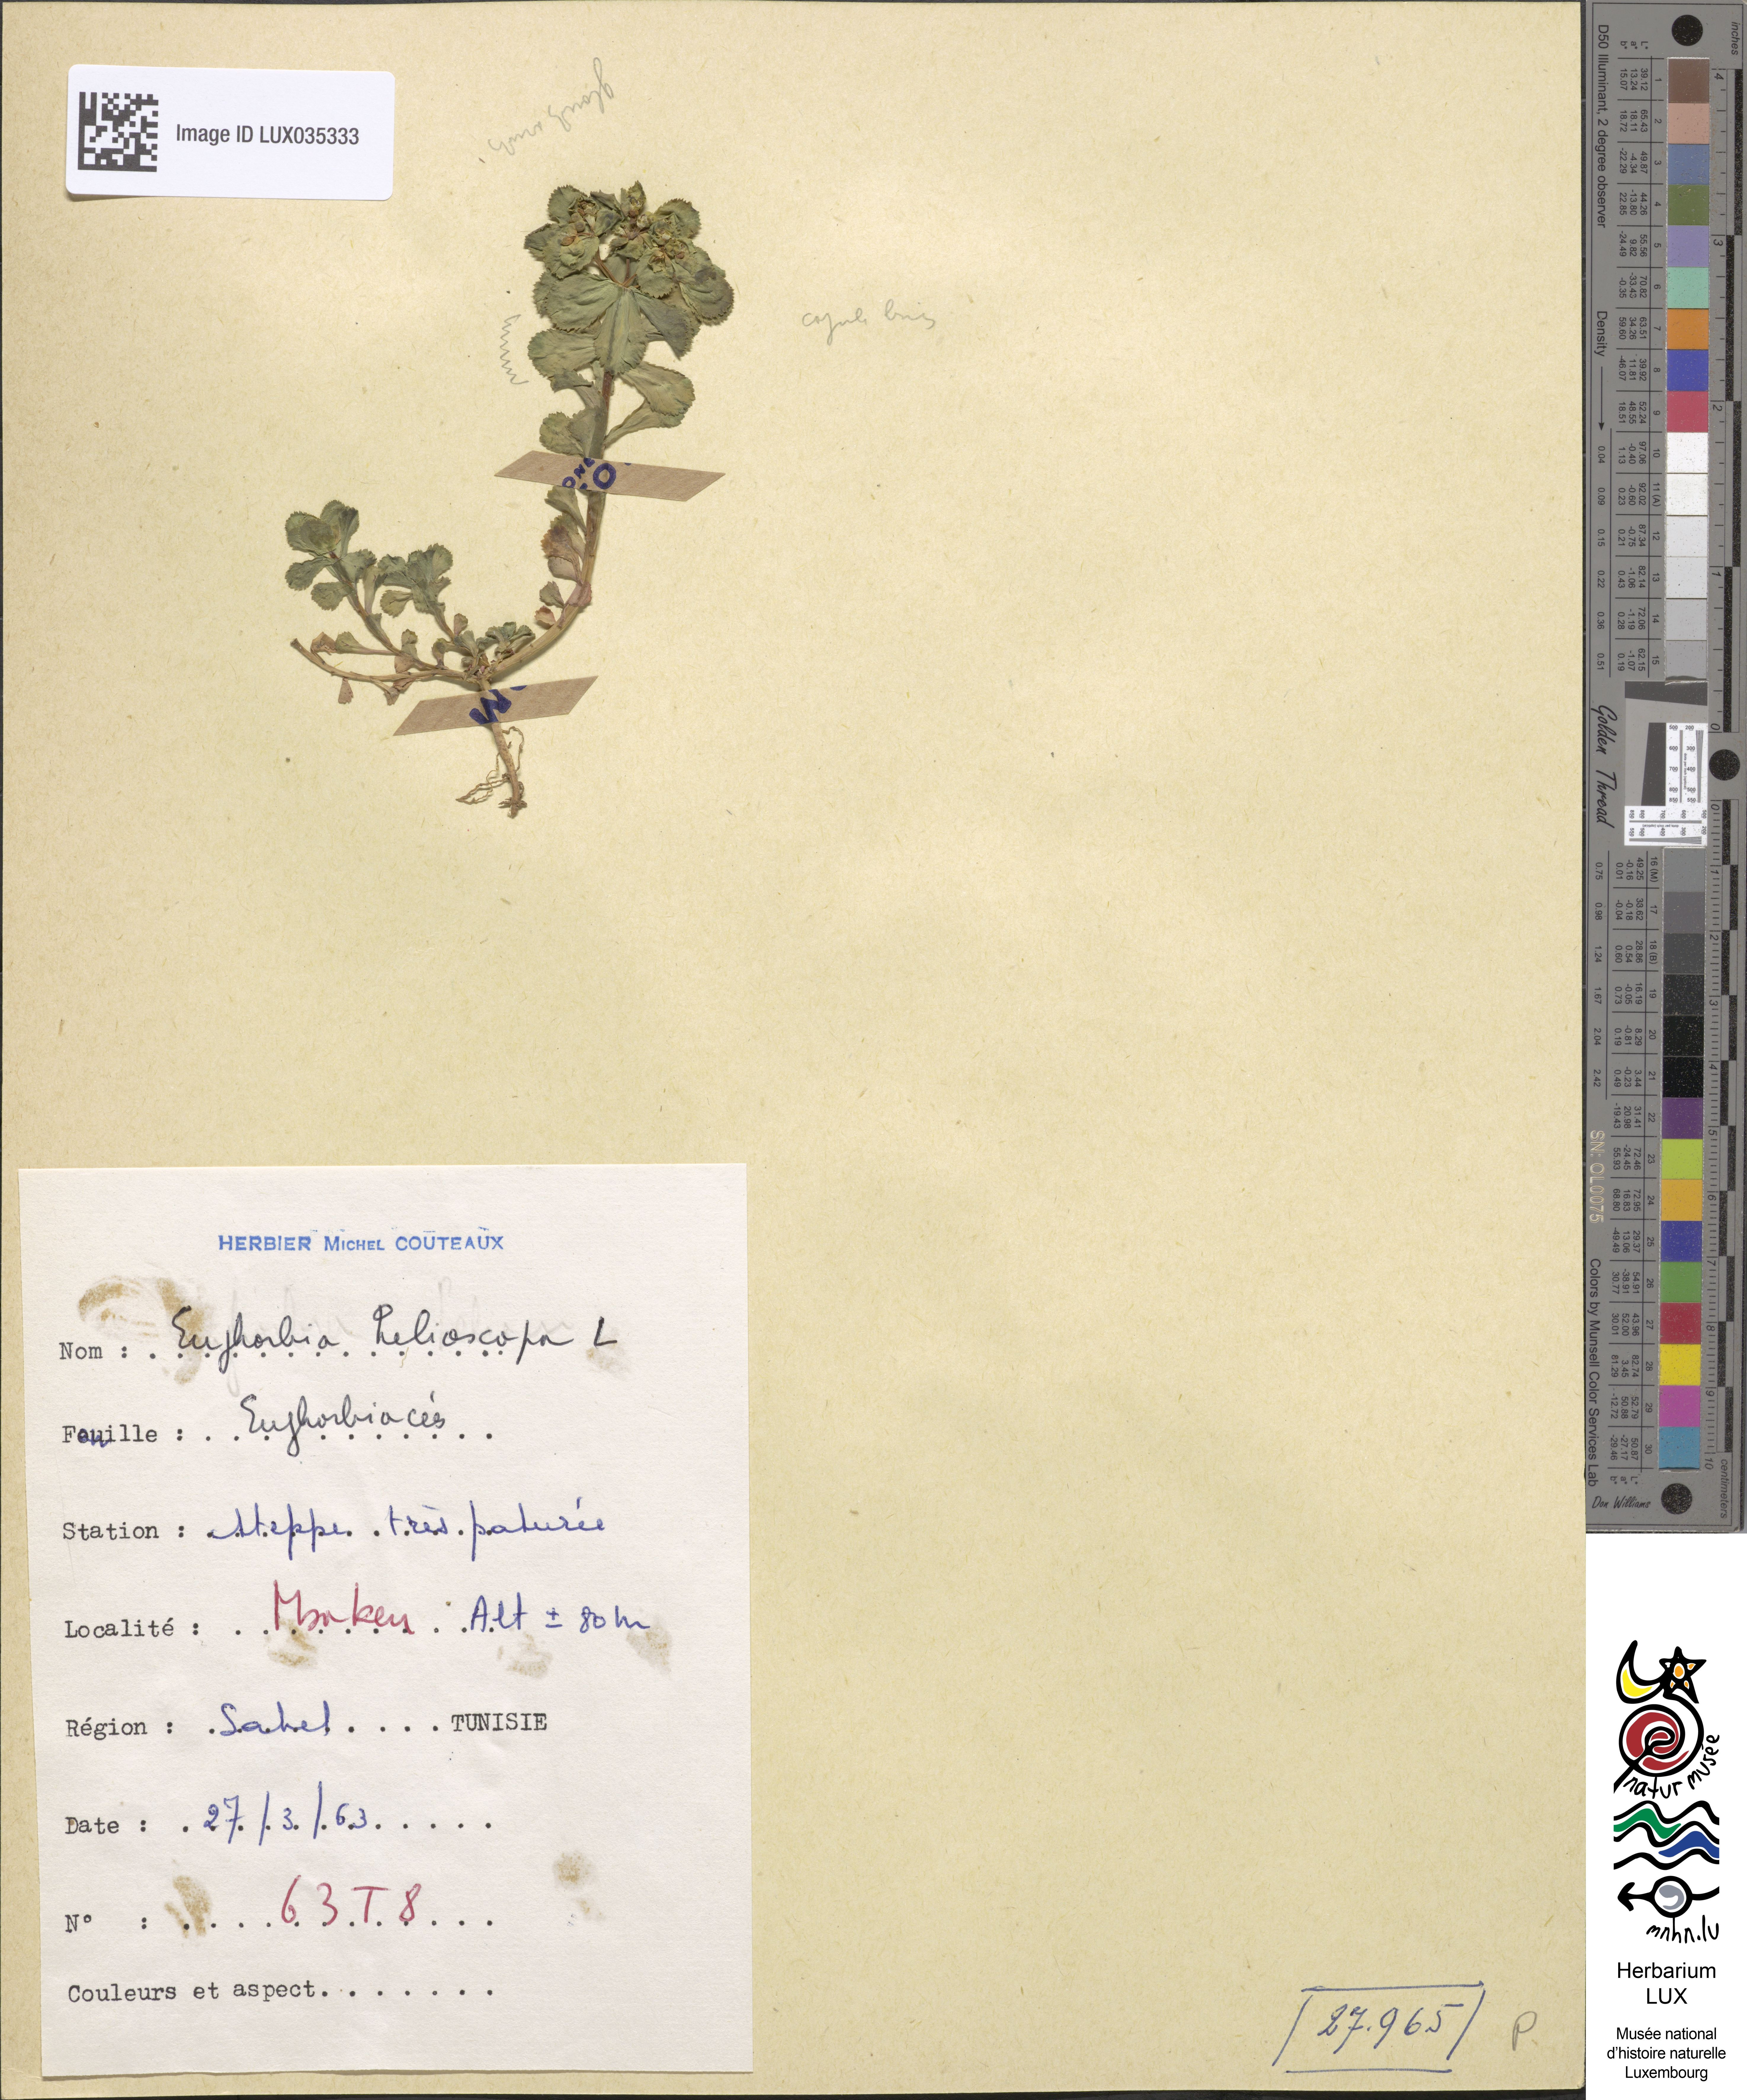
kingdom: Plantae
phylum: Tracheophyta
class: Magnoliopsida
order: Malpighiales
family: Euphorbiaceae
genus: Euphorbia
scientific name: Euphorbia helioscopia
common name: Sun spurge
